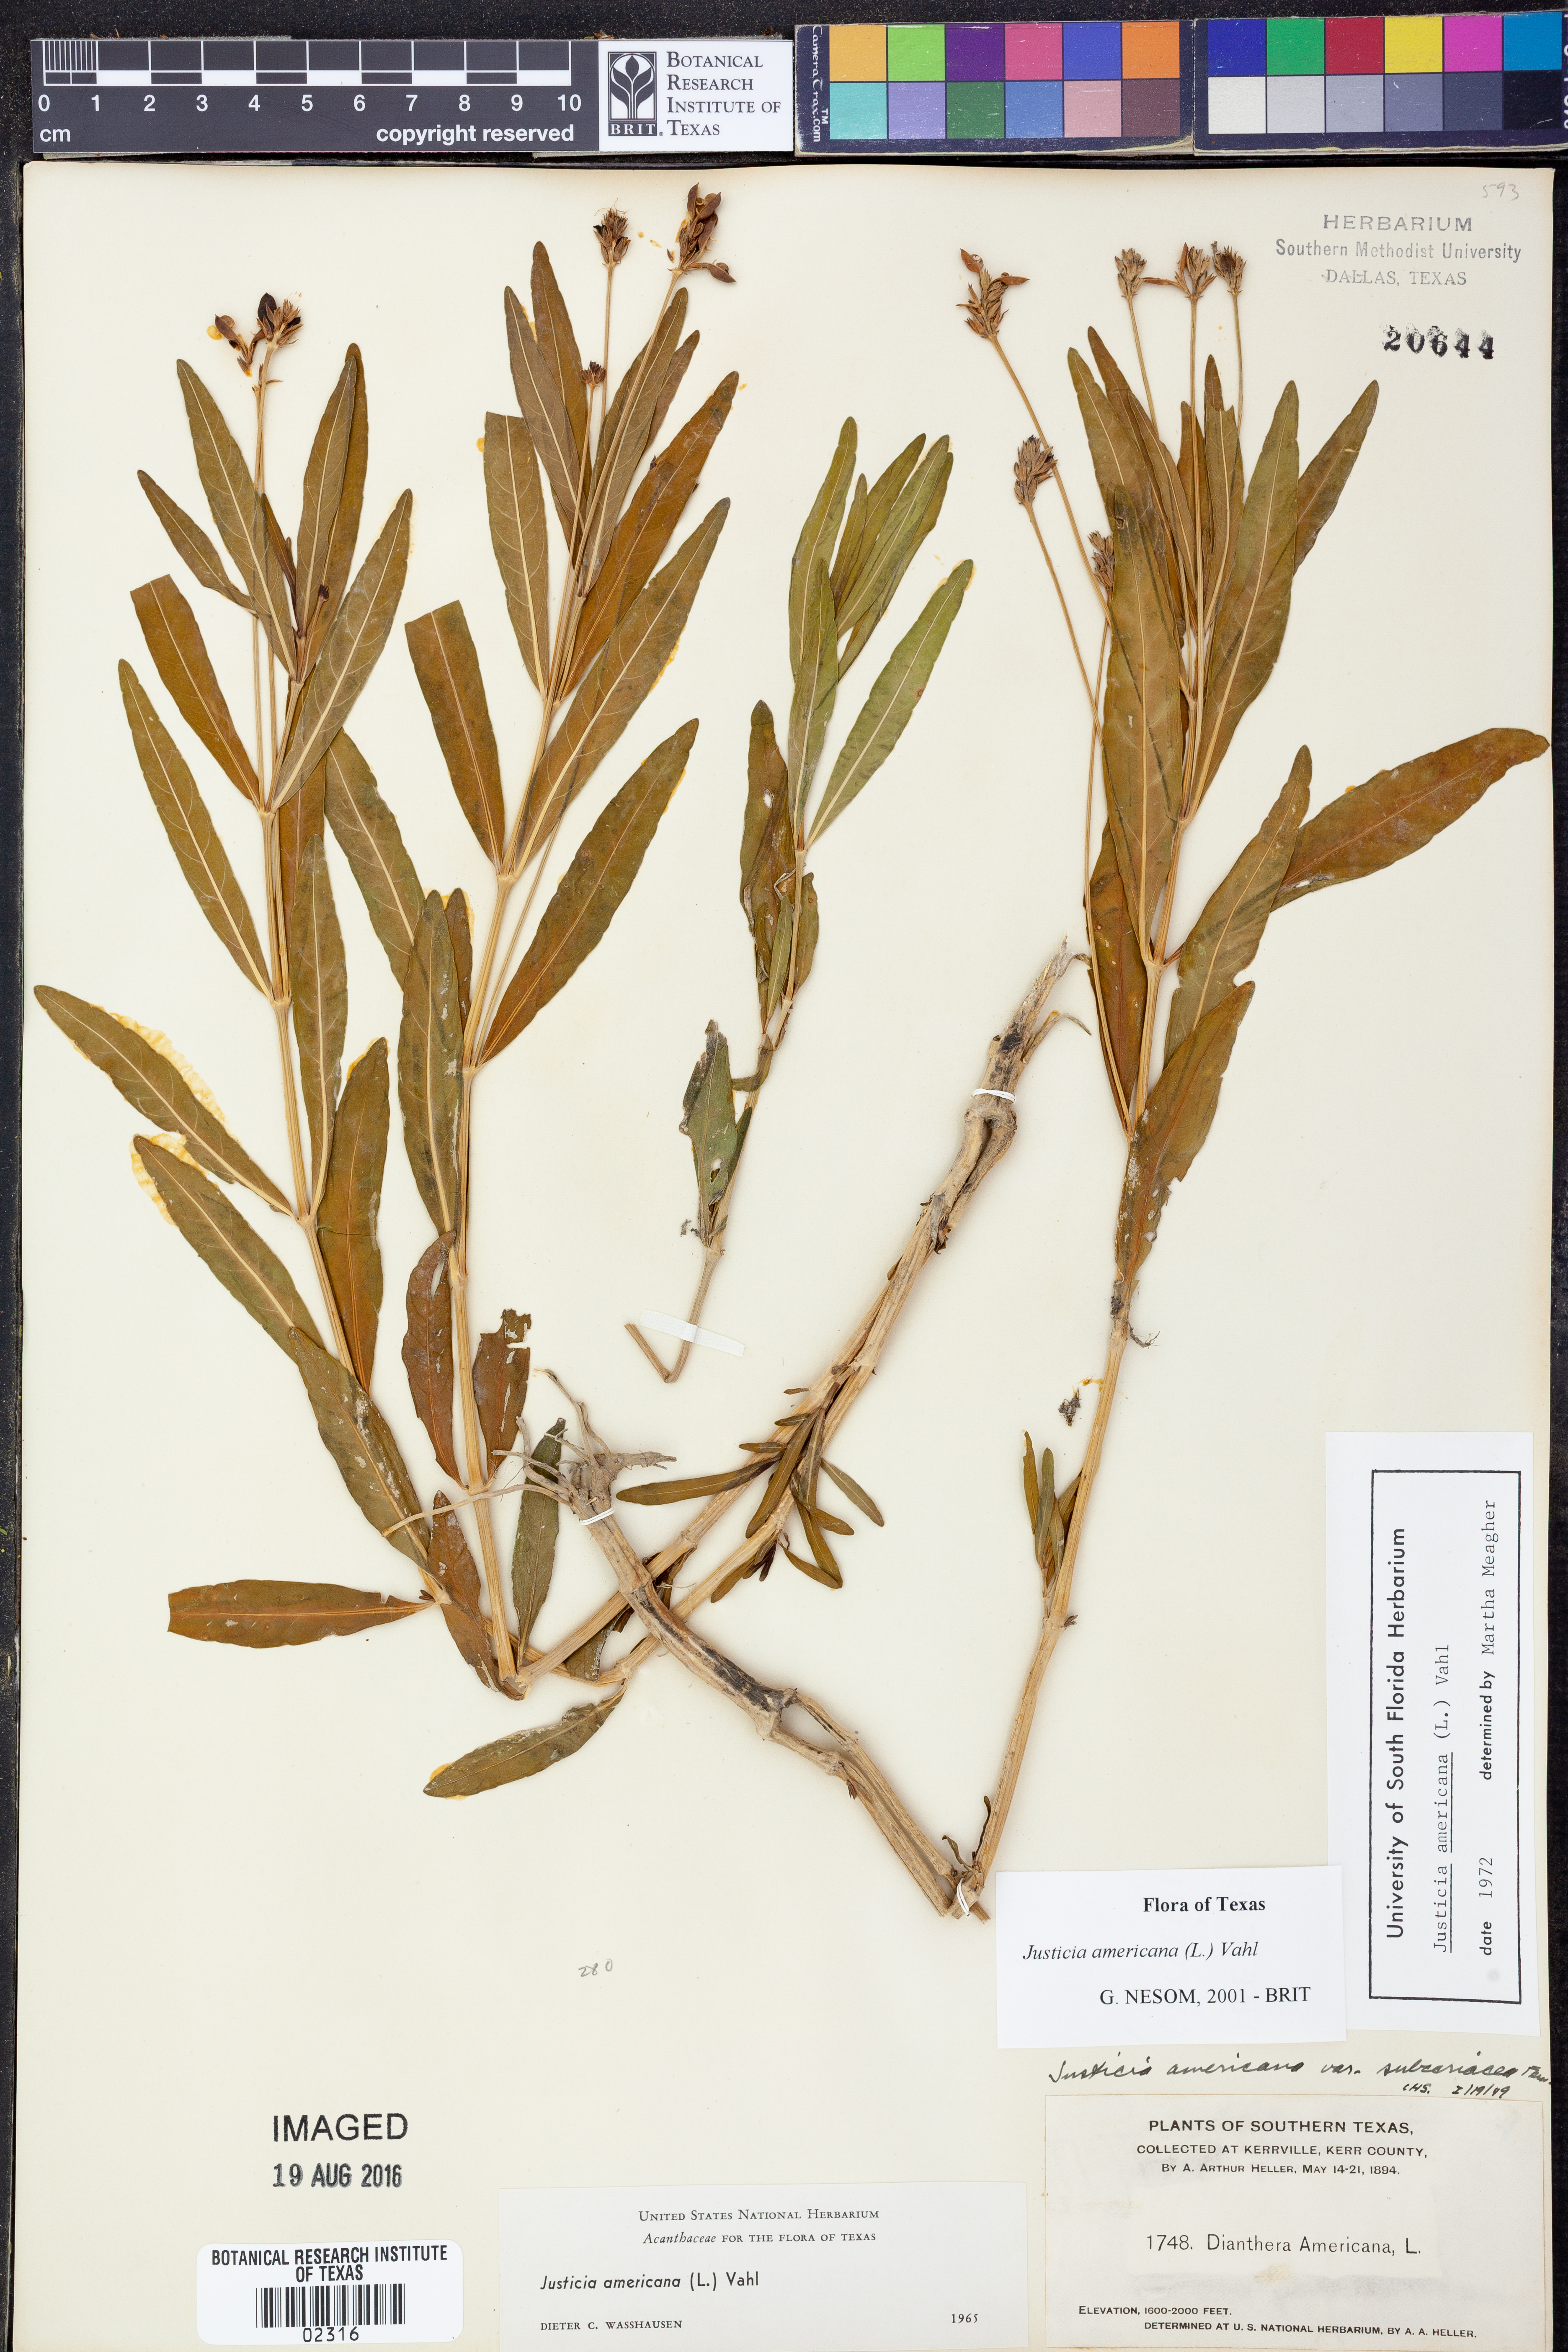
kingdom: Plantae
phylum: Tracheophyta
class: Magnoliopsida
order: Lamiales
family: Acanthaceae
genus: Dianthera
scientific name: Dianthera americana
